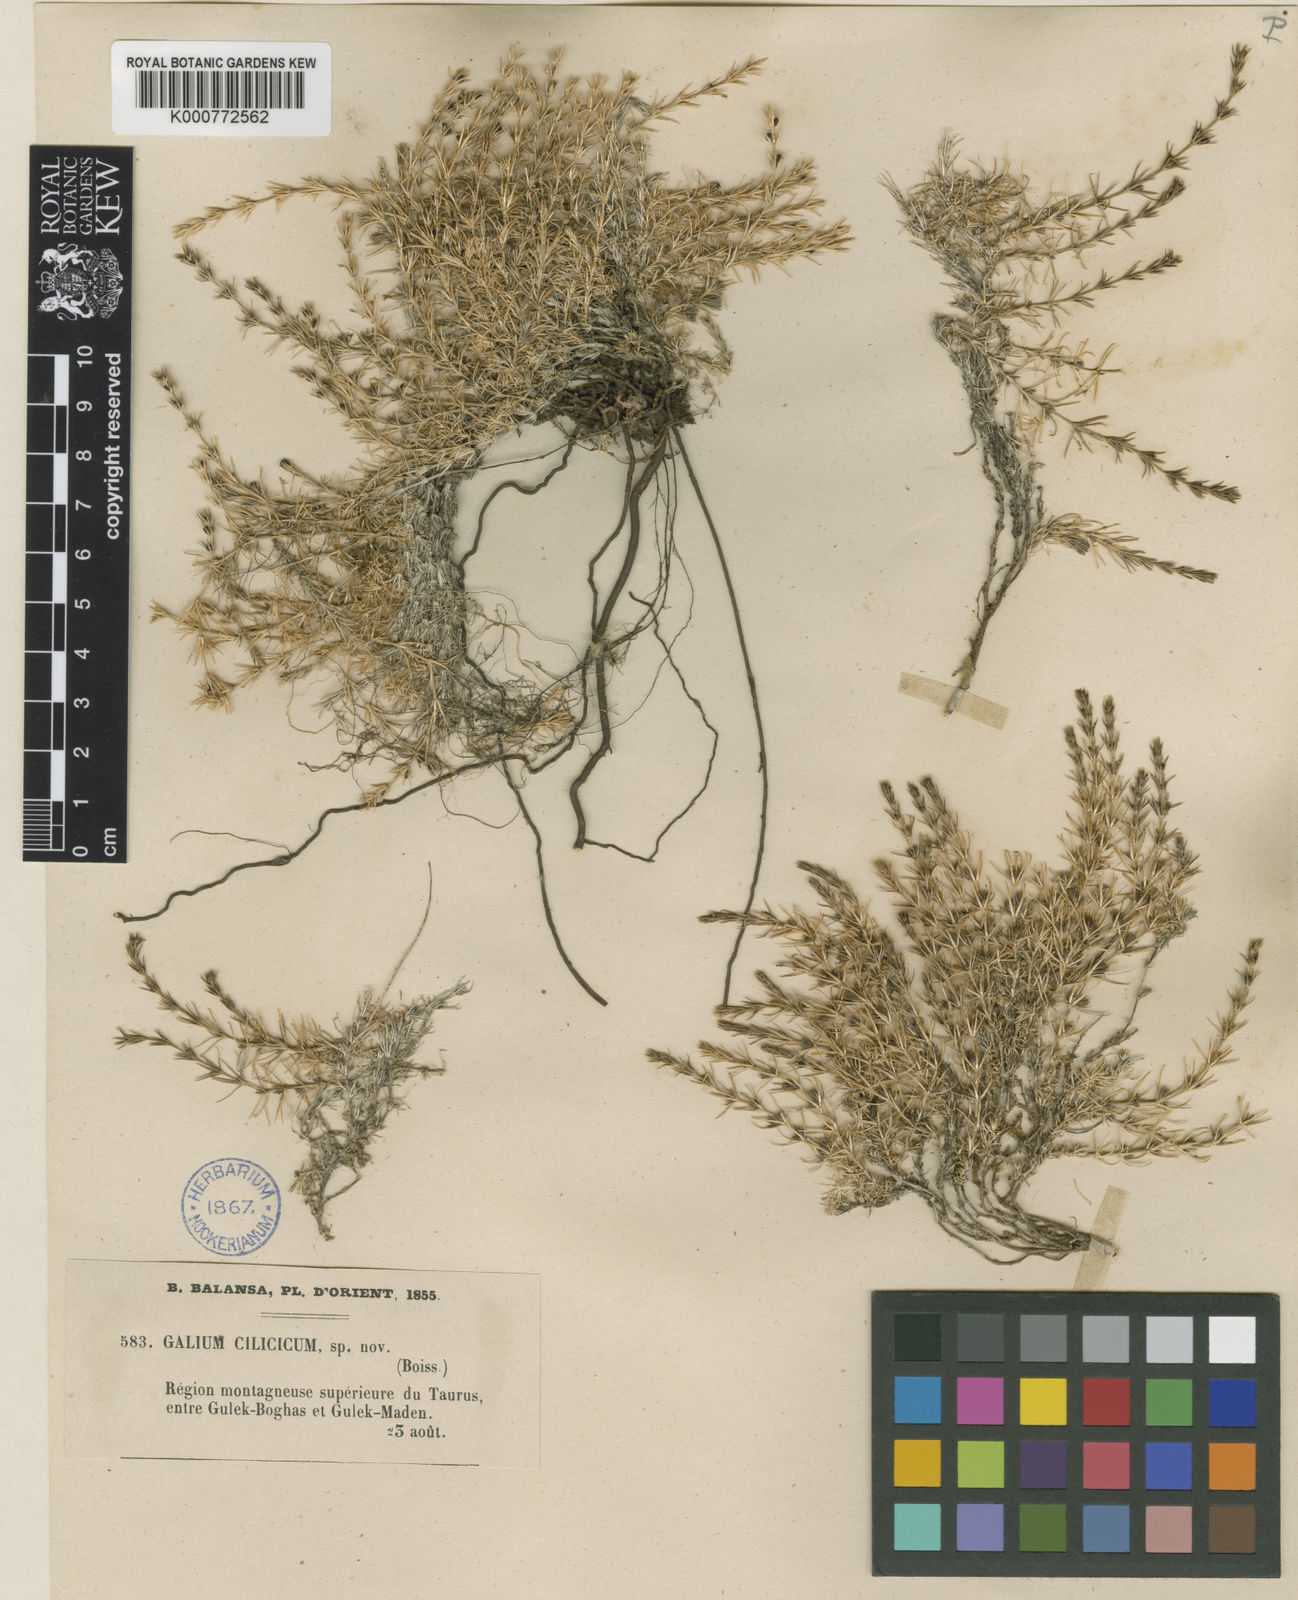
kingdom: Plantae
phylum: Tracheophyta
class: Magnoliopsida
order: Gentianales
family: Rubiaceae
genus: Galium
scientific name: Galium cilicicum
